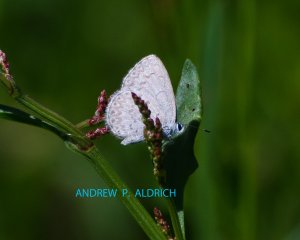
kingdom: Animalia
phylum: Arthropoda
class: Insecta
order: Lepidoptera
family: Lycaenidae
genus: Celastrina
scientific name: Celastrina lucia
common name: Northern Spring Azure
